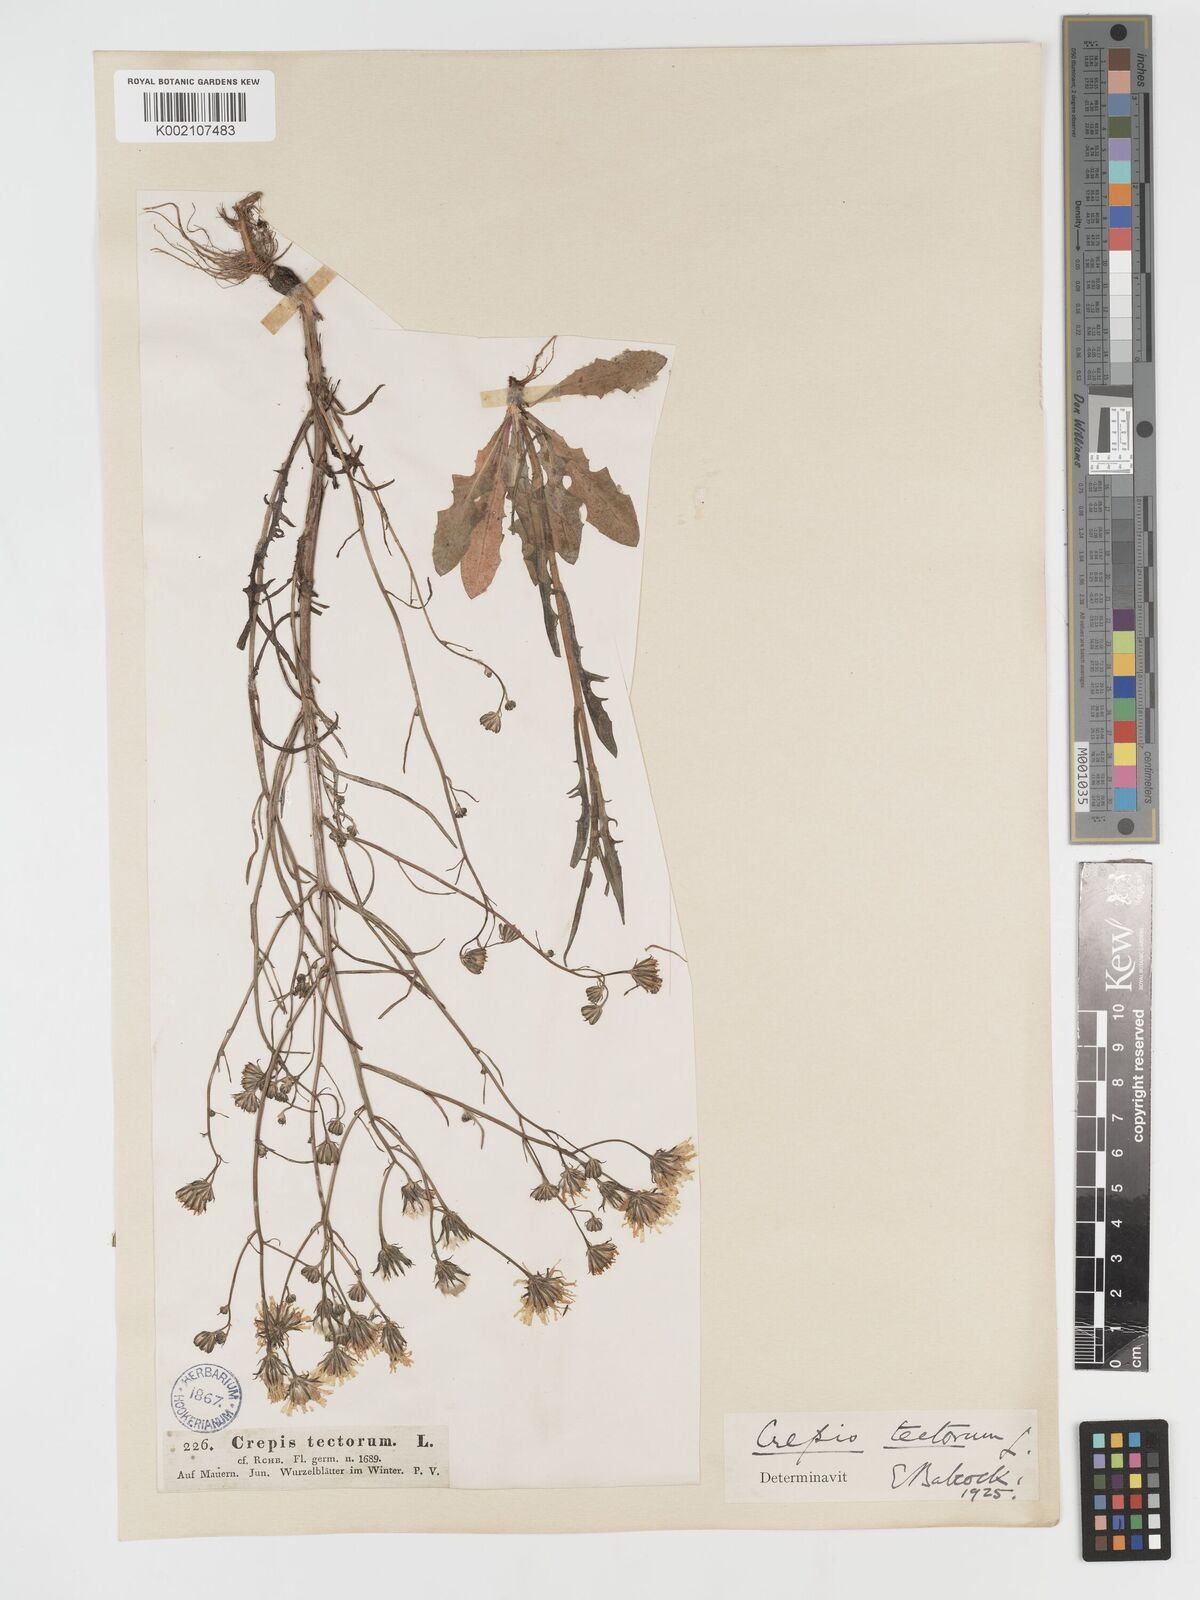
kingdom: Plantae
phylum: Tracheophyta
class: Magnoliopsida
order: Asterales
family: Asteraceae
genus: Crepis
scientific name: Crepis tectorum
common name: Narrow-leaved hawk's-beard
